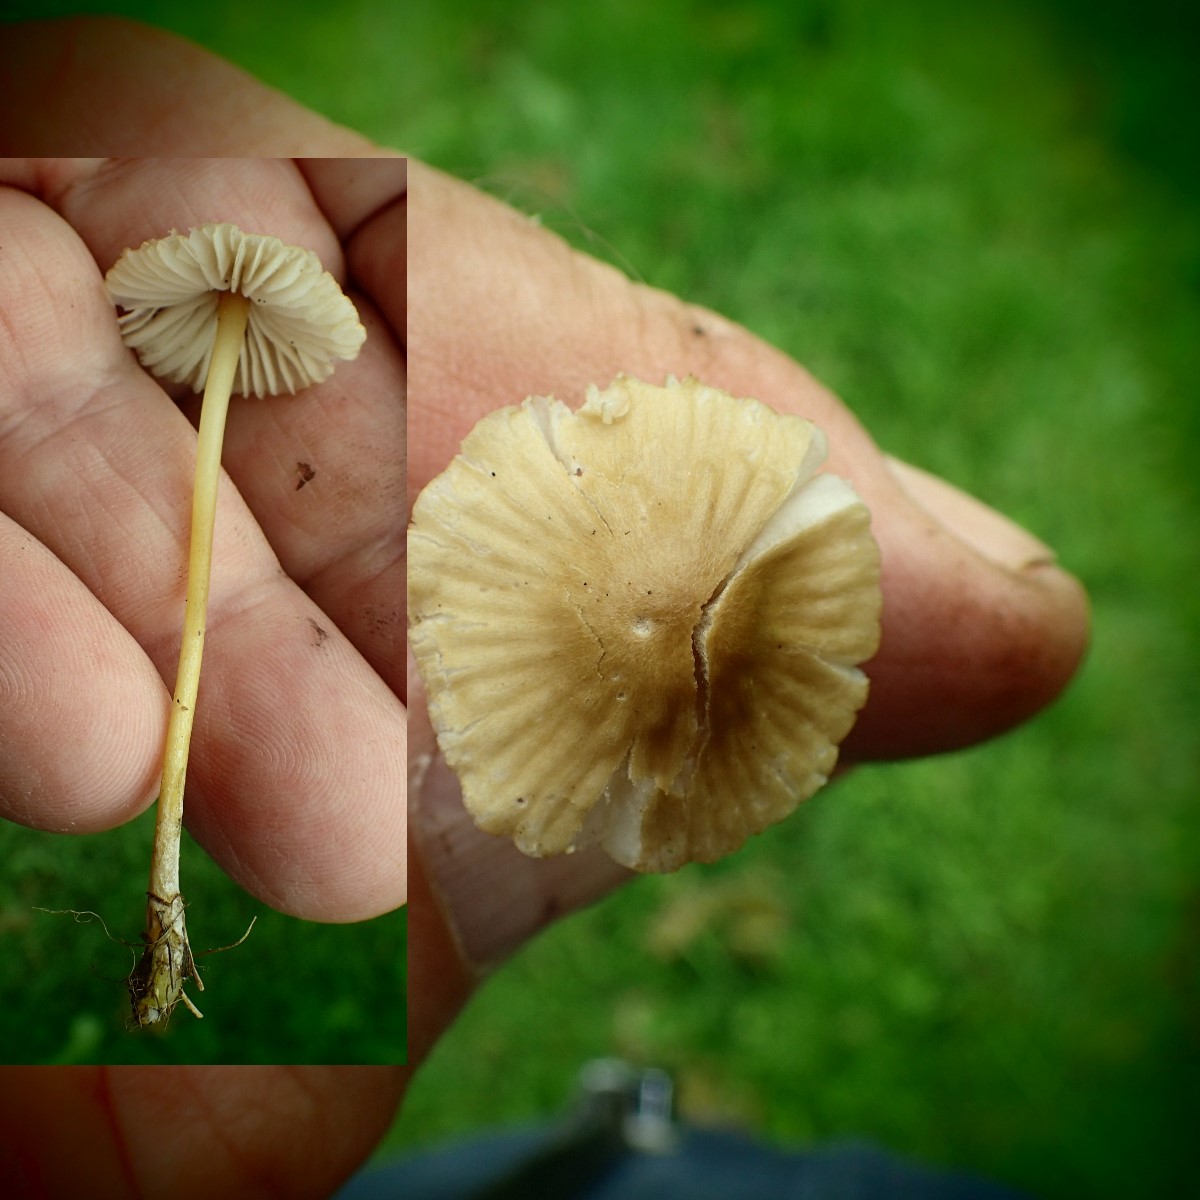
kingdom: Fungi
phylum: Basidiomycota
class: Agaricomycetes
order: Agaricales
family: Mycenaceae
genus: Mycena
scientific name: Mycena olivaceomarginata
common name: brunægget huesvamp
